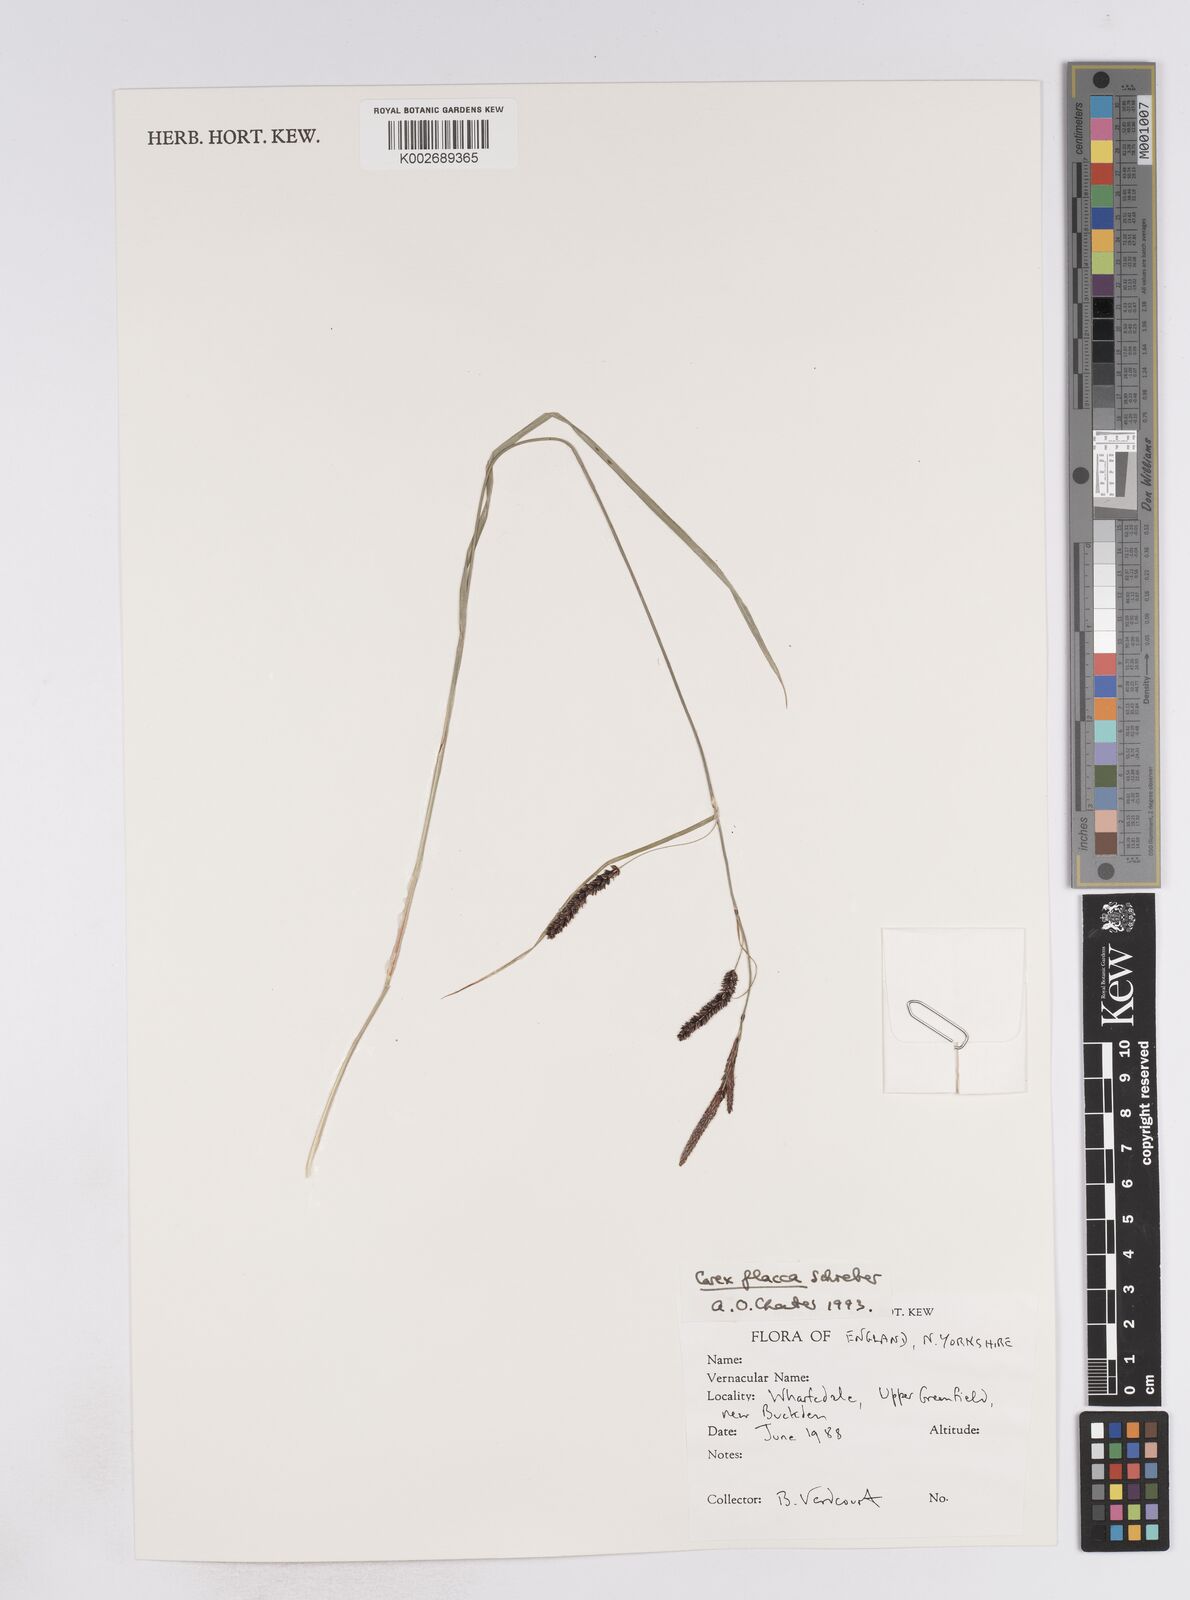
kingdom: Plantae
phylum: Tracheophyta
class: Liliopsida
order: Poales
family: Cyperaceae
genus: Carex
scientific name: Carex flacca
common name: Glaucous sedge
